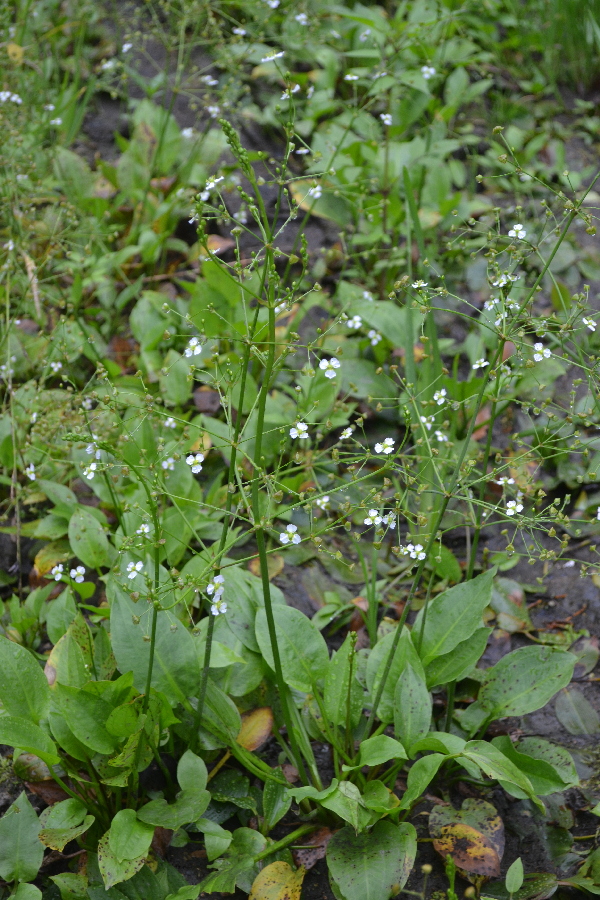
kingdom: Plantae
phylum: Tracheophyta
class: Liliopsida
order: Alismatales
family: Alismataceae
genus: Alisma
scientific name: Alisma plantago-aquatica
